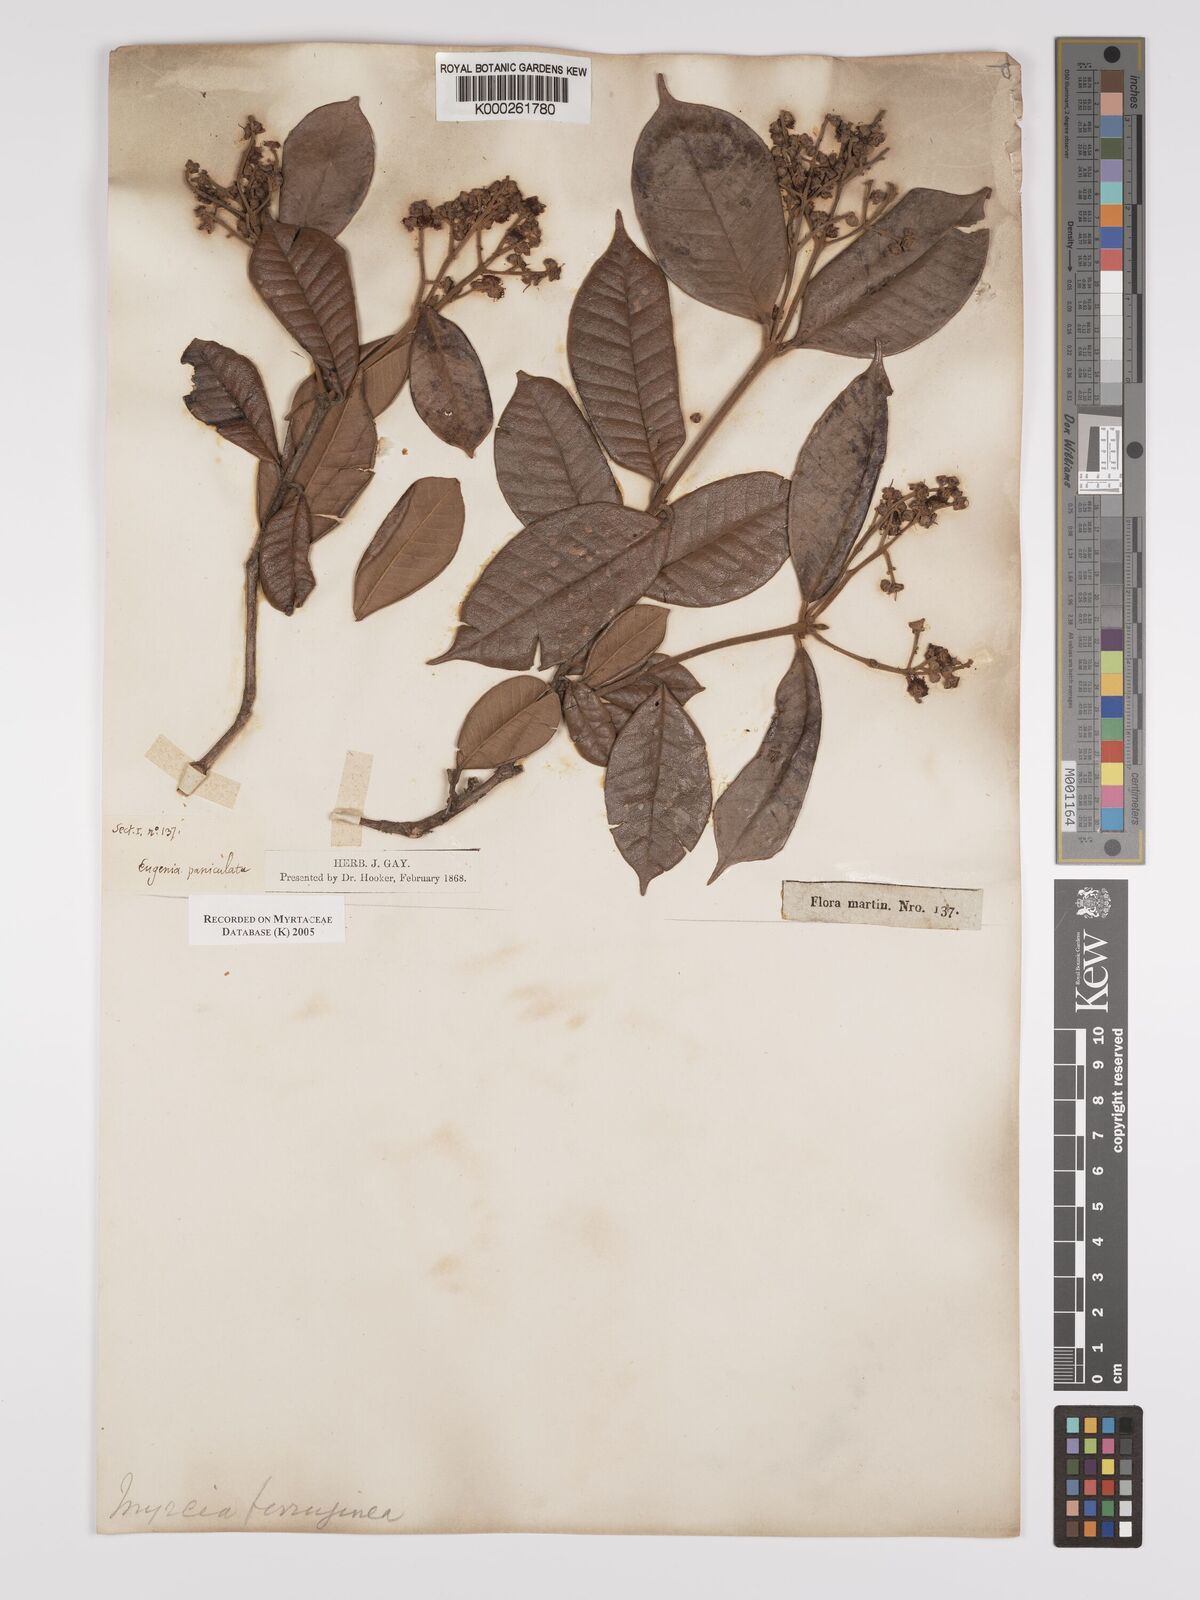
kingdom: Plantae
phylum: Tracheophyta
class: Magnoliopsida
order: Myrtales
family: Myrtaceae
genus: Myrcia
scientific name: Myrcia ferruginea
